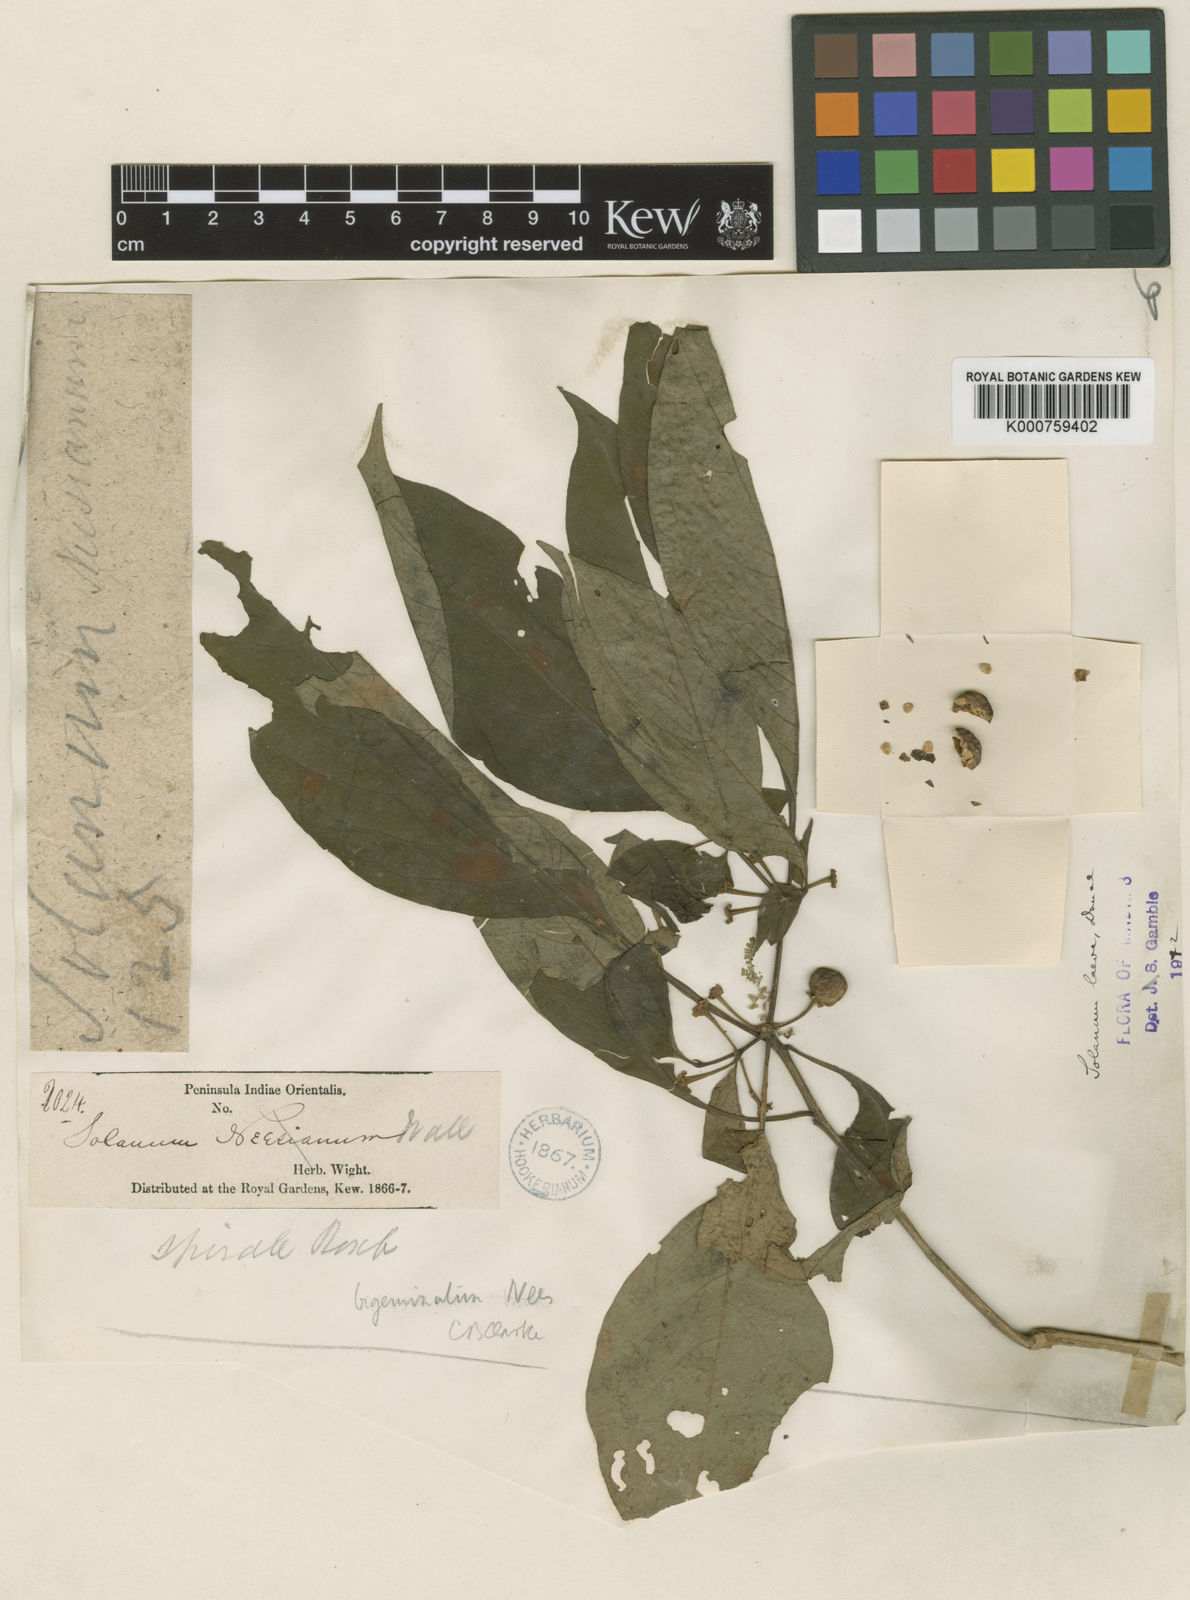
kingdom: Plantae
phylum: Tracheophyta
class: Magnoliopsida
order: Solanales
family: Solanaceae
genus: Lycianthes
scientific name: Lycianthes bigeminata
